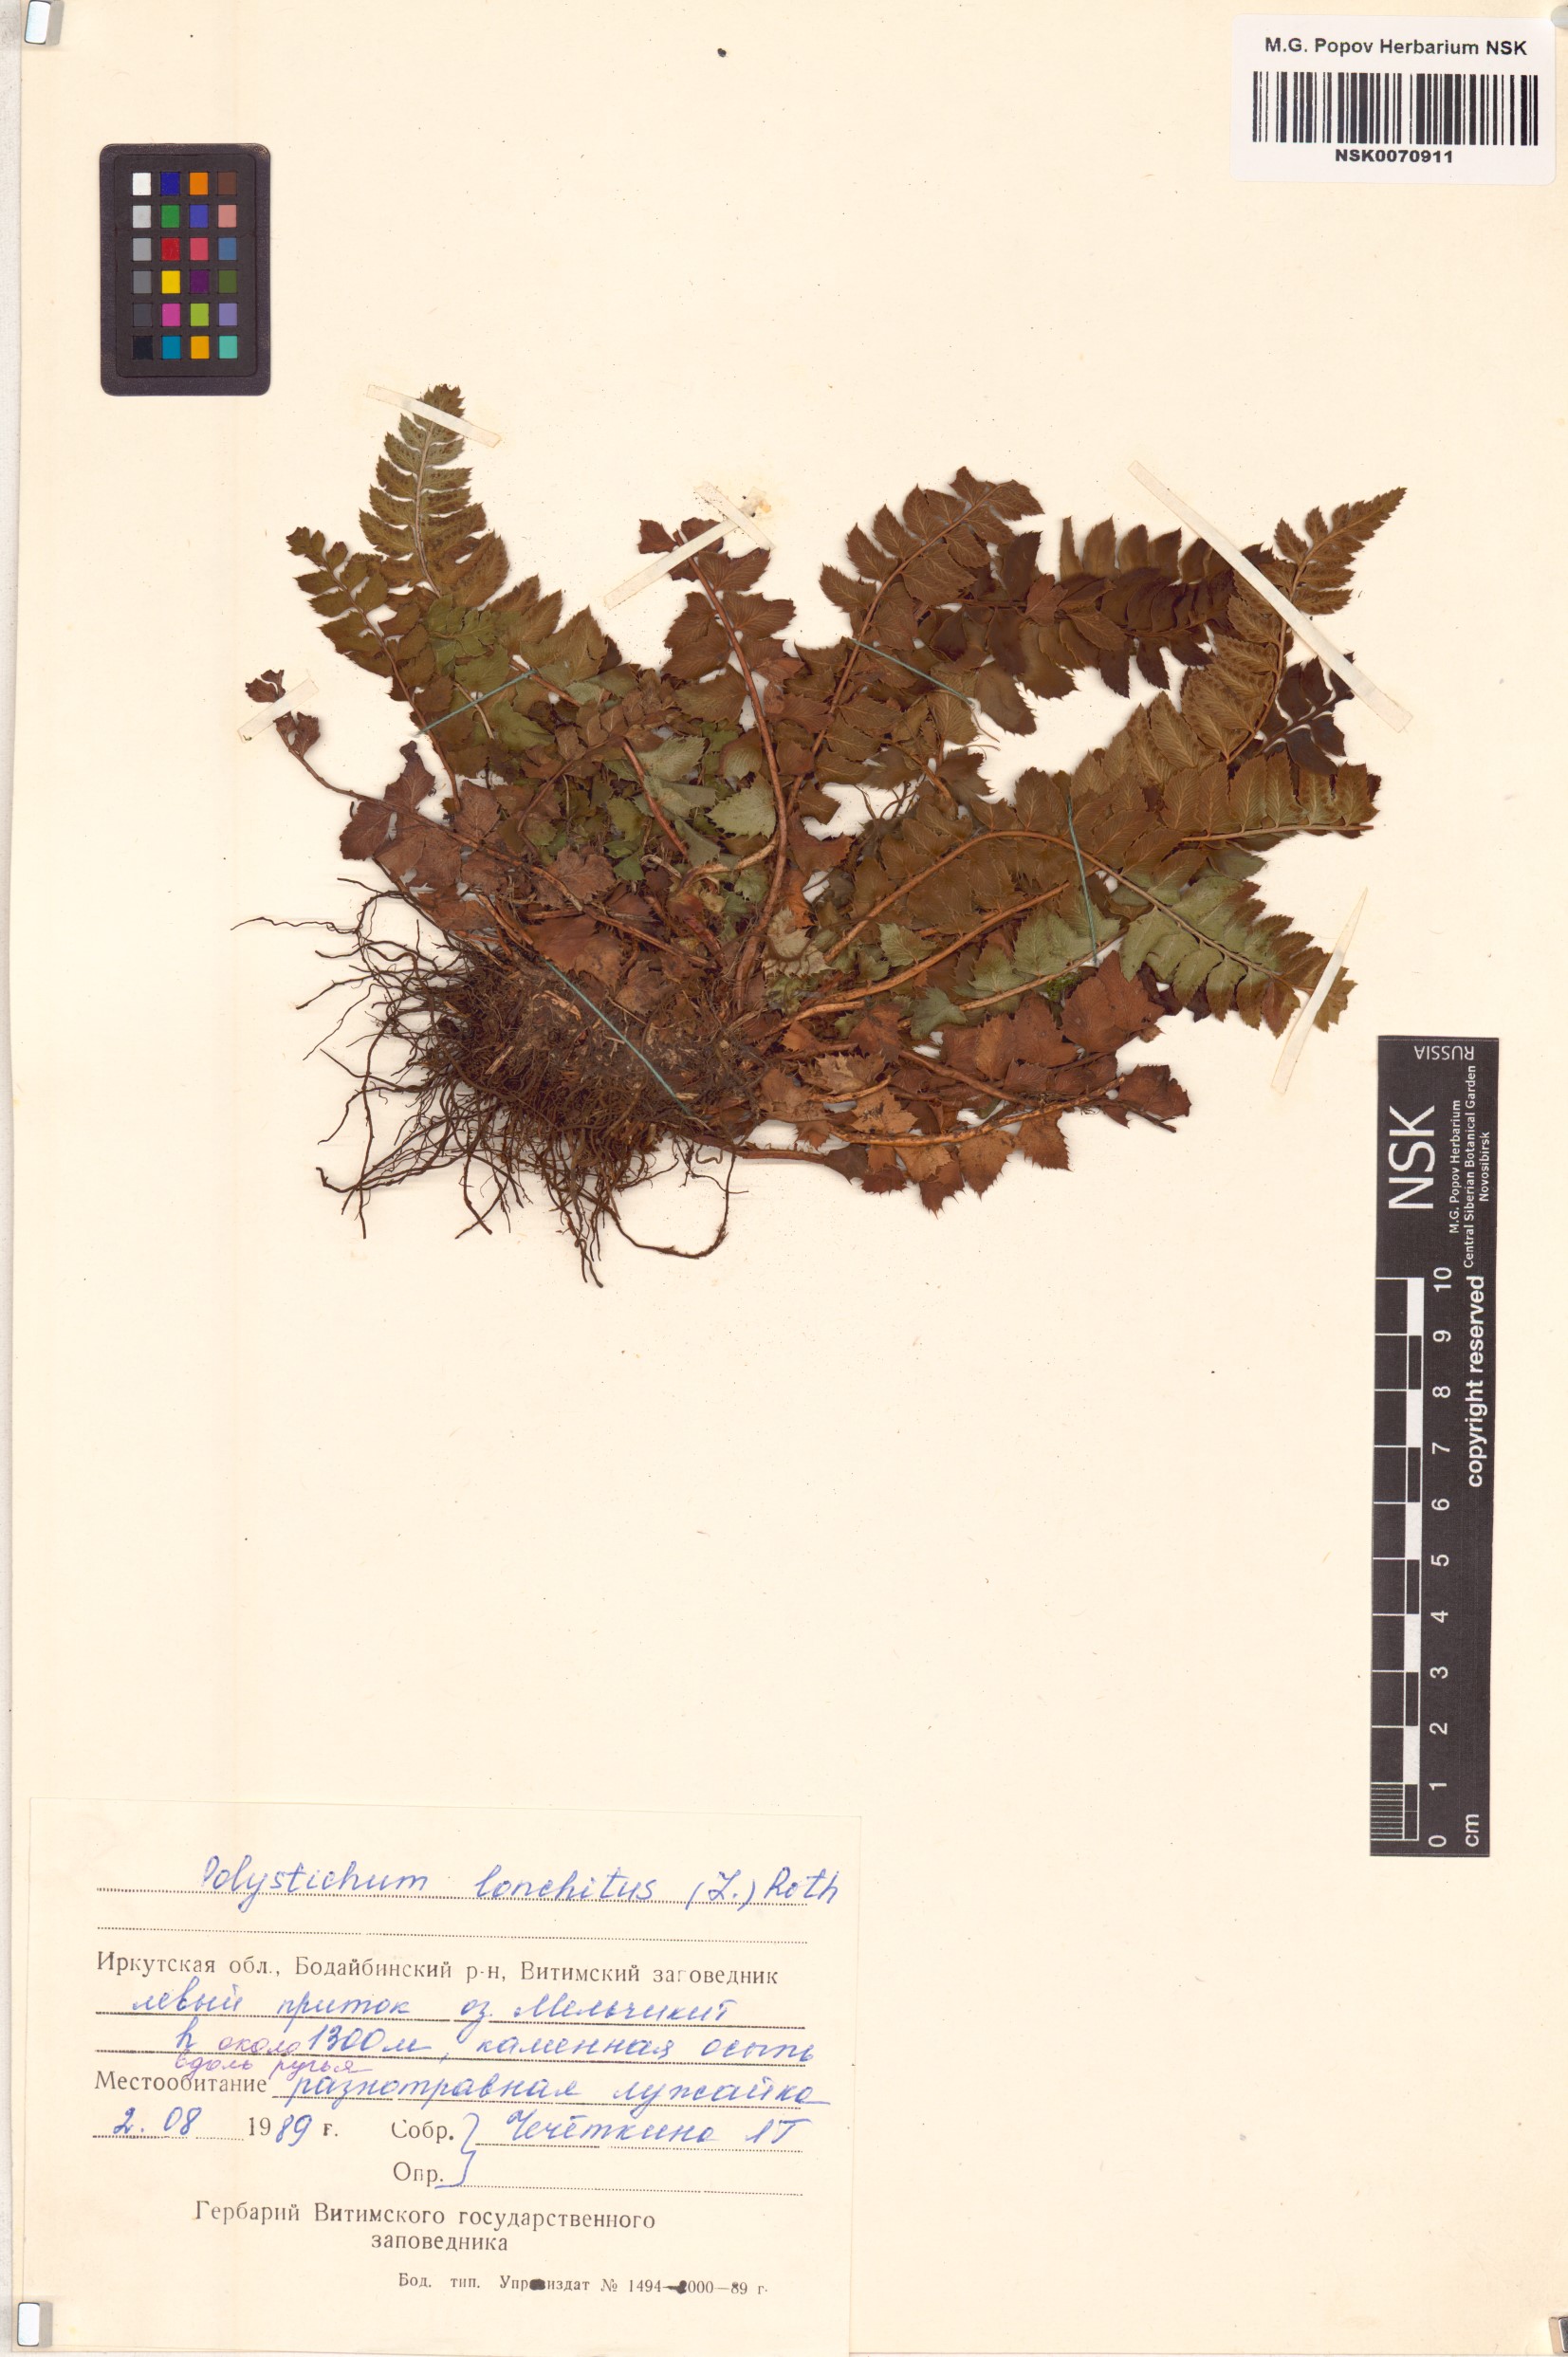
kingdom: Plantae
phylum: Tracheophyta
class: Polypodiopsida
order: Polypodiales
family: Dryopteridaceae
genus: Polystichum
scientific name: Polystichum lonchitis
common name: Holly fern
